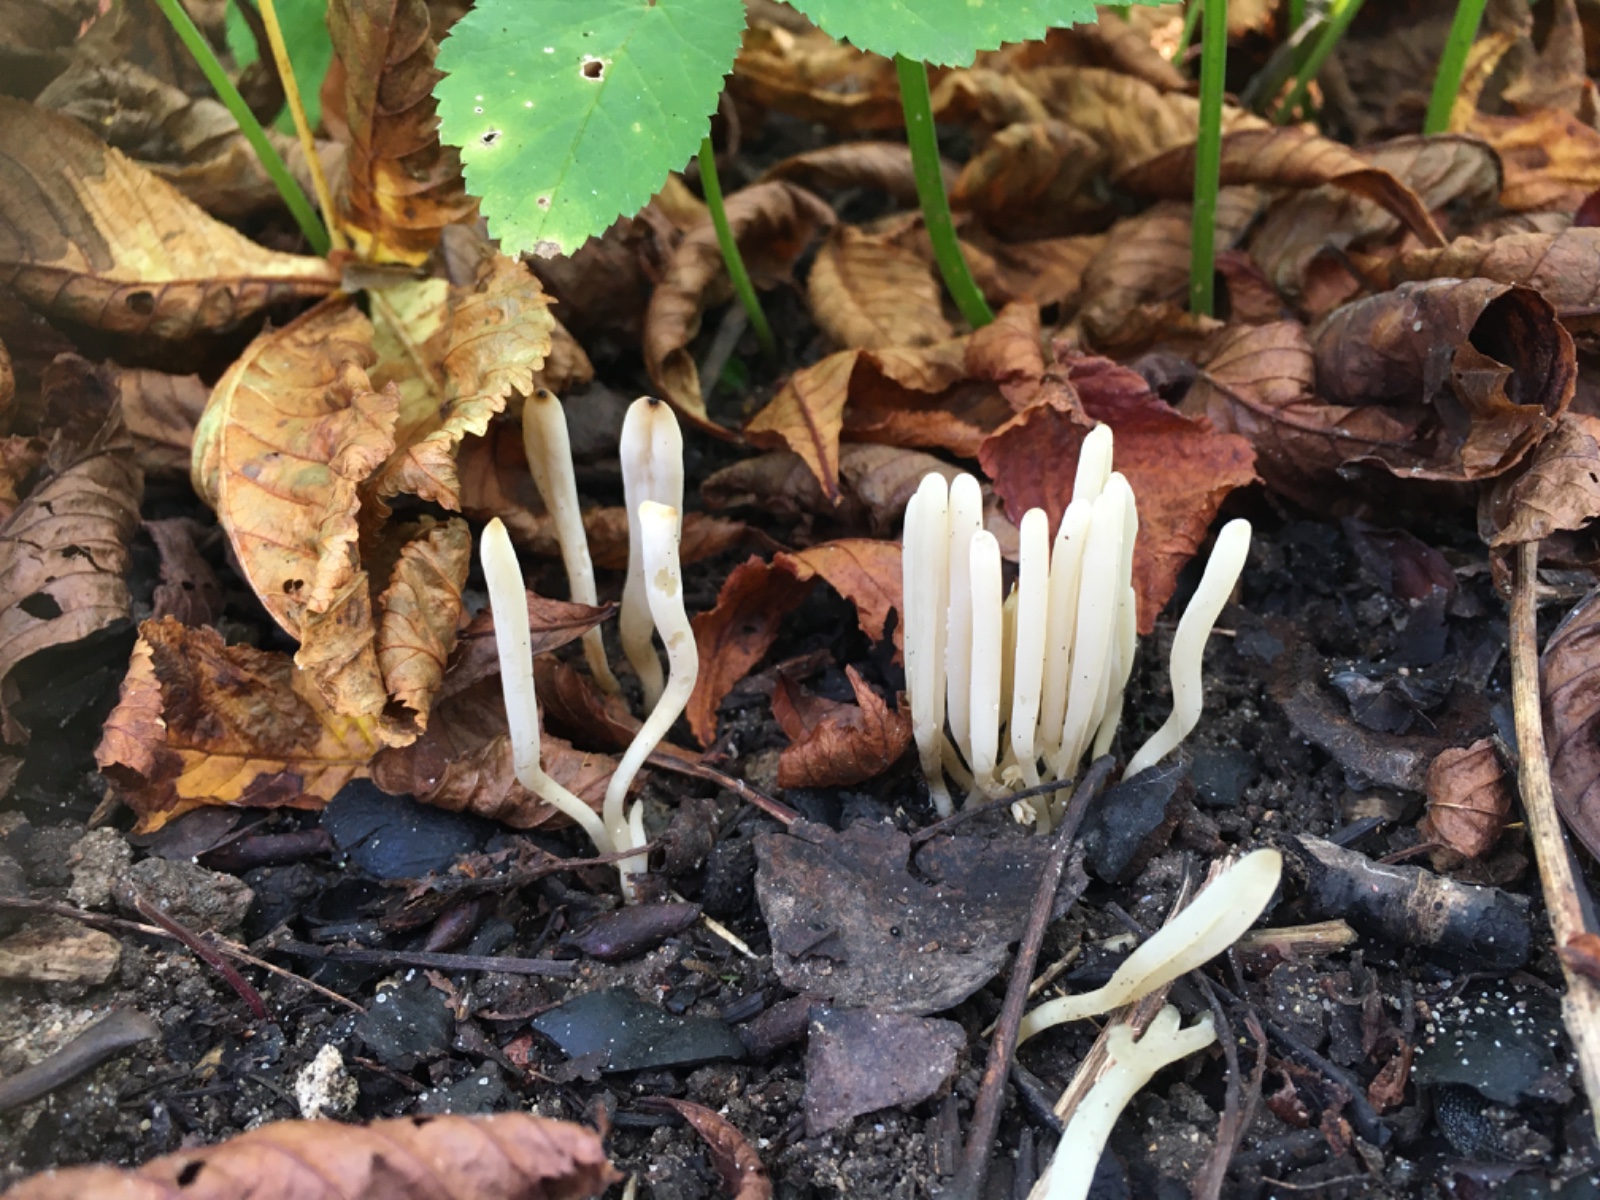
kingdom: Fungi
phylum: Basidiomycota
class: Agaricomycetes
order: Agaricales
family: Clavariaceae
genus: Clavaria
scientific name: Clavaria falcata
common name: hvid køllesvamp
